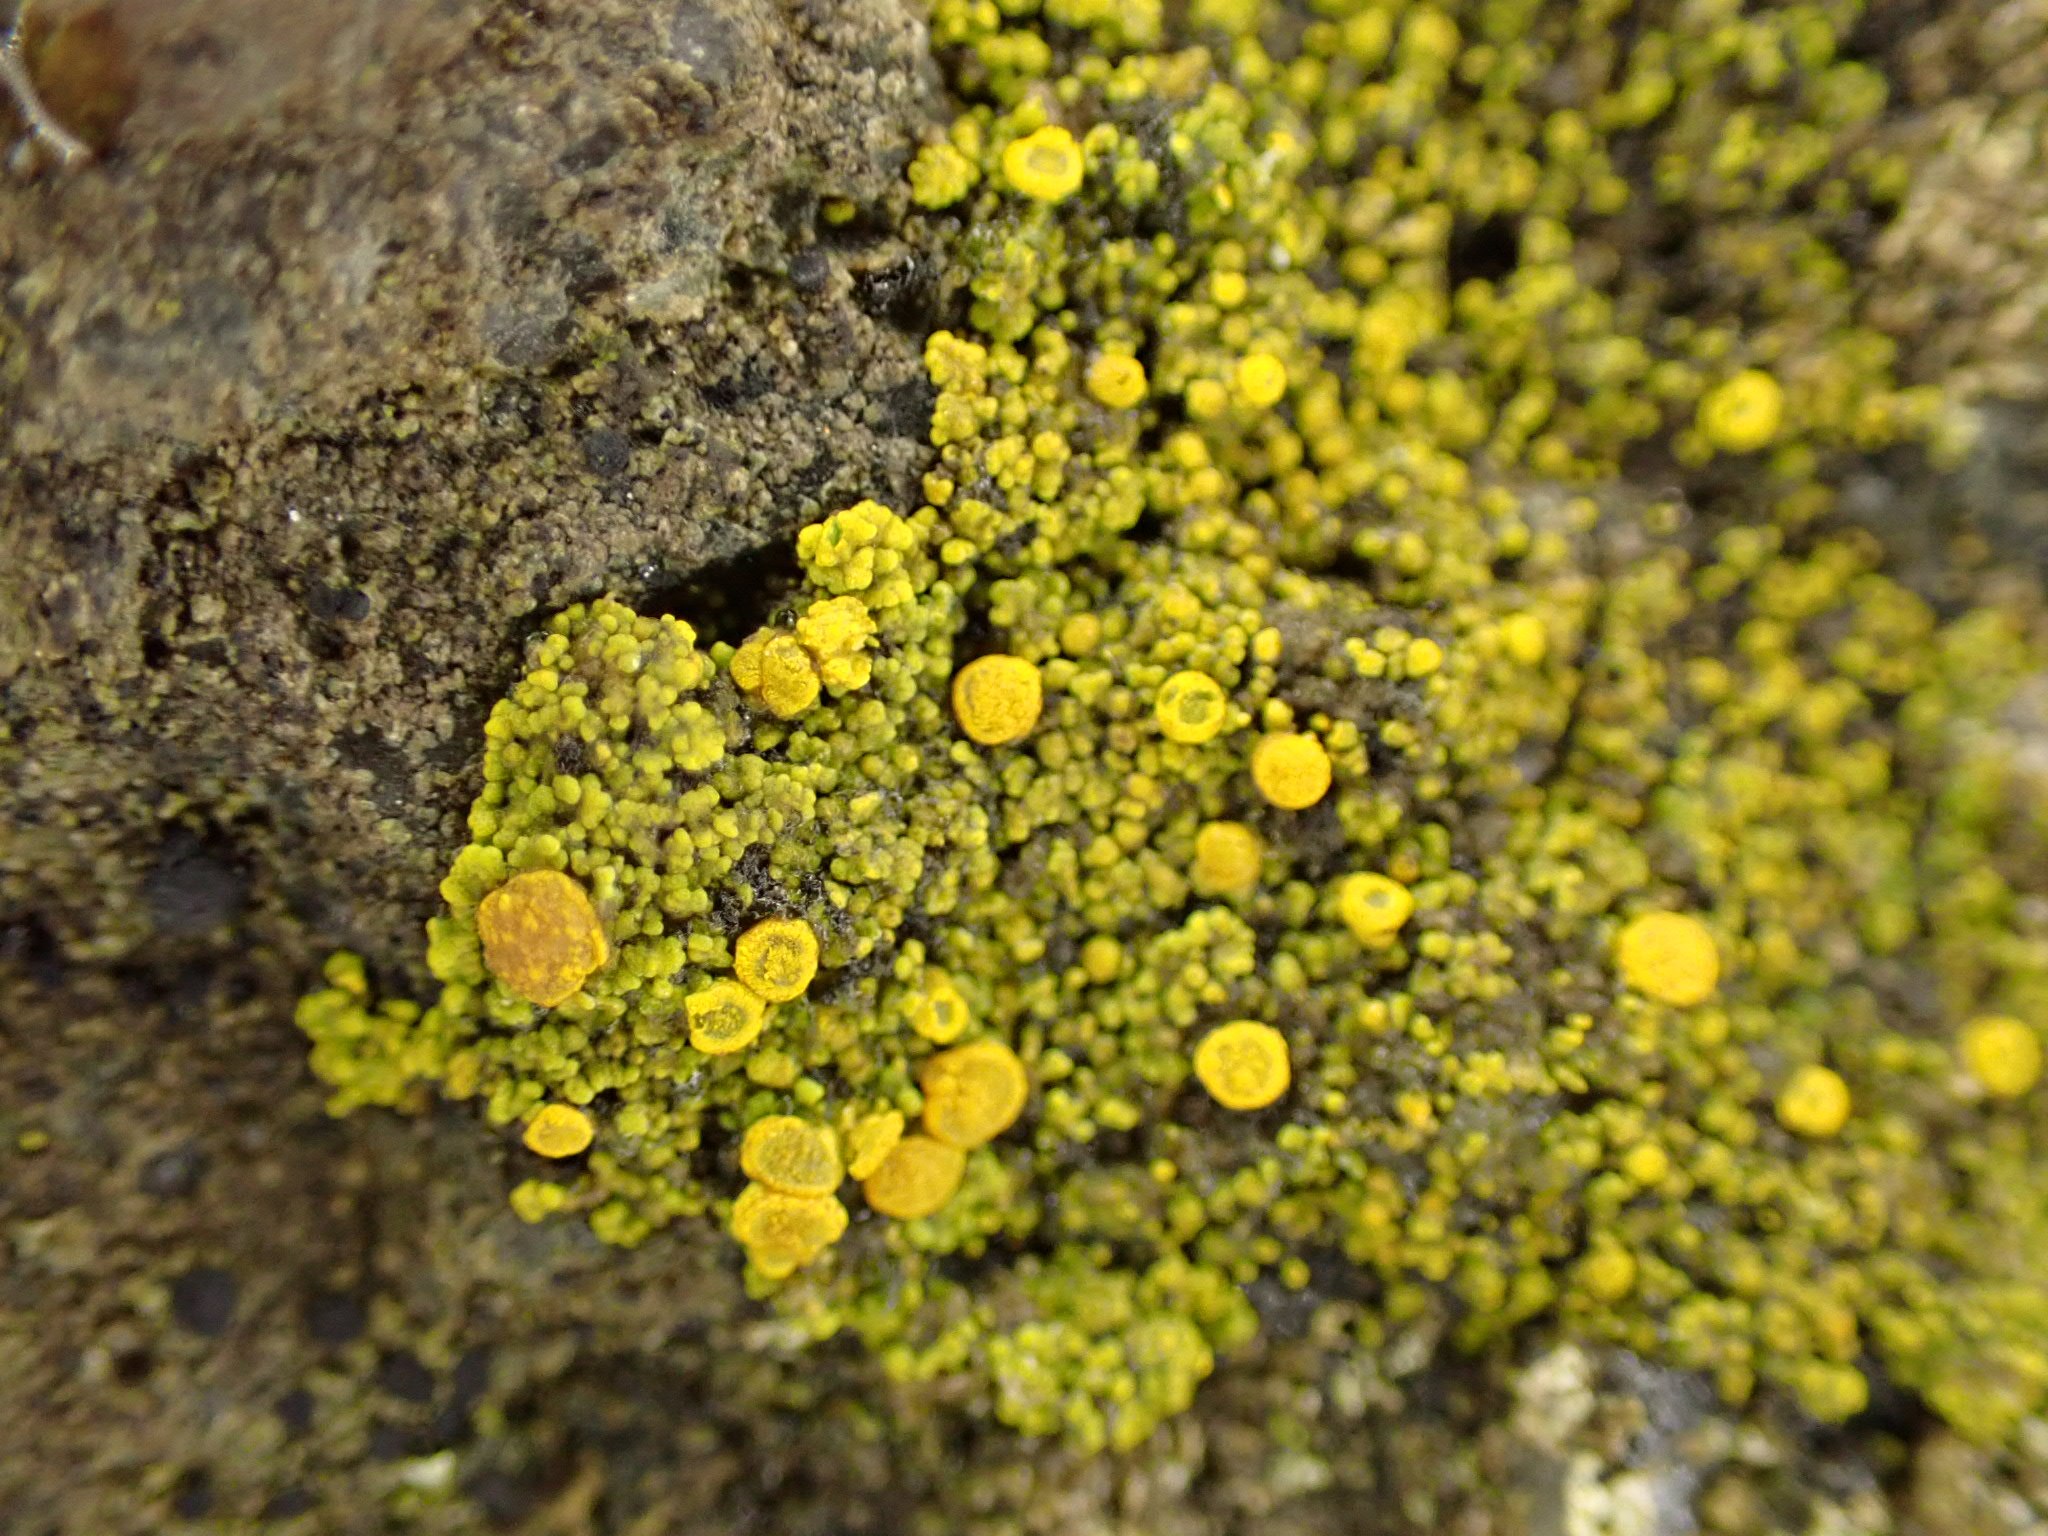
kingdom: Fungi
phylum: Ascomycota
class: Candelariomycetes
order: Candelariales
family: Candelariaceae
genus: Candelariella
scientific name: Candelariella vitellina
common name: almindelig æggeblommelav
